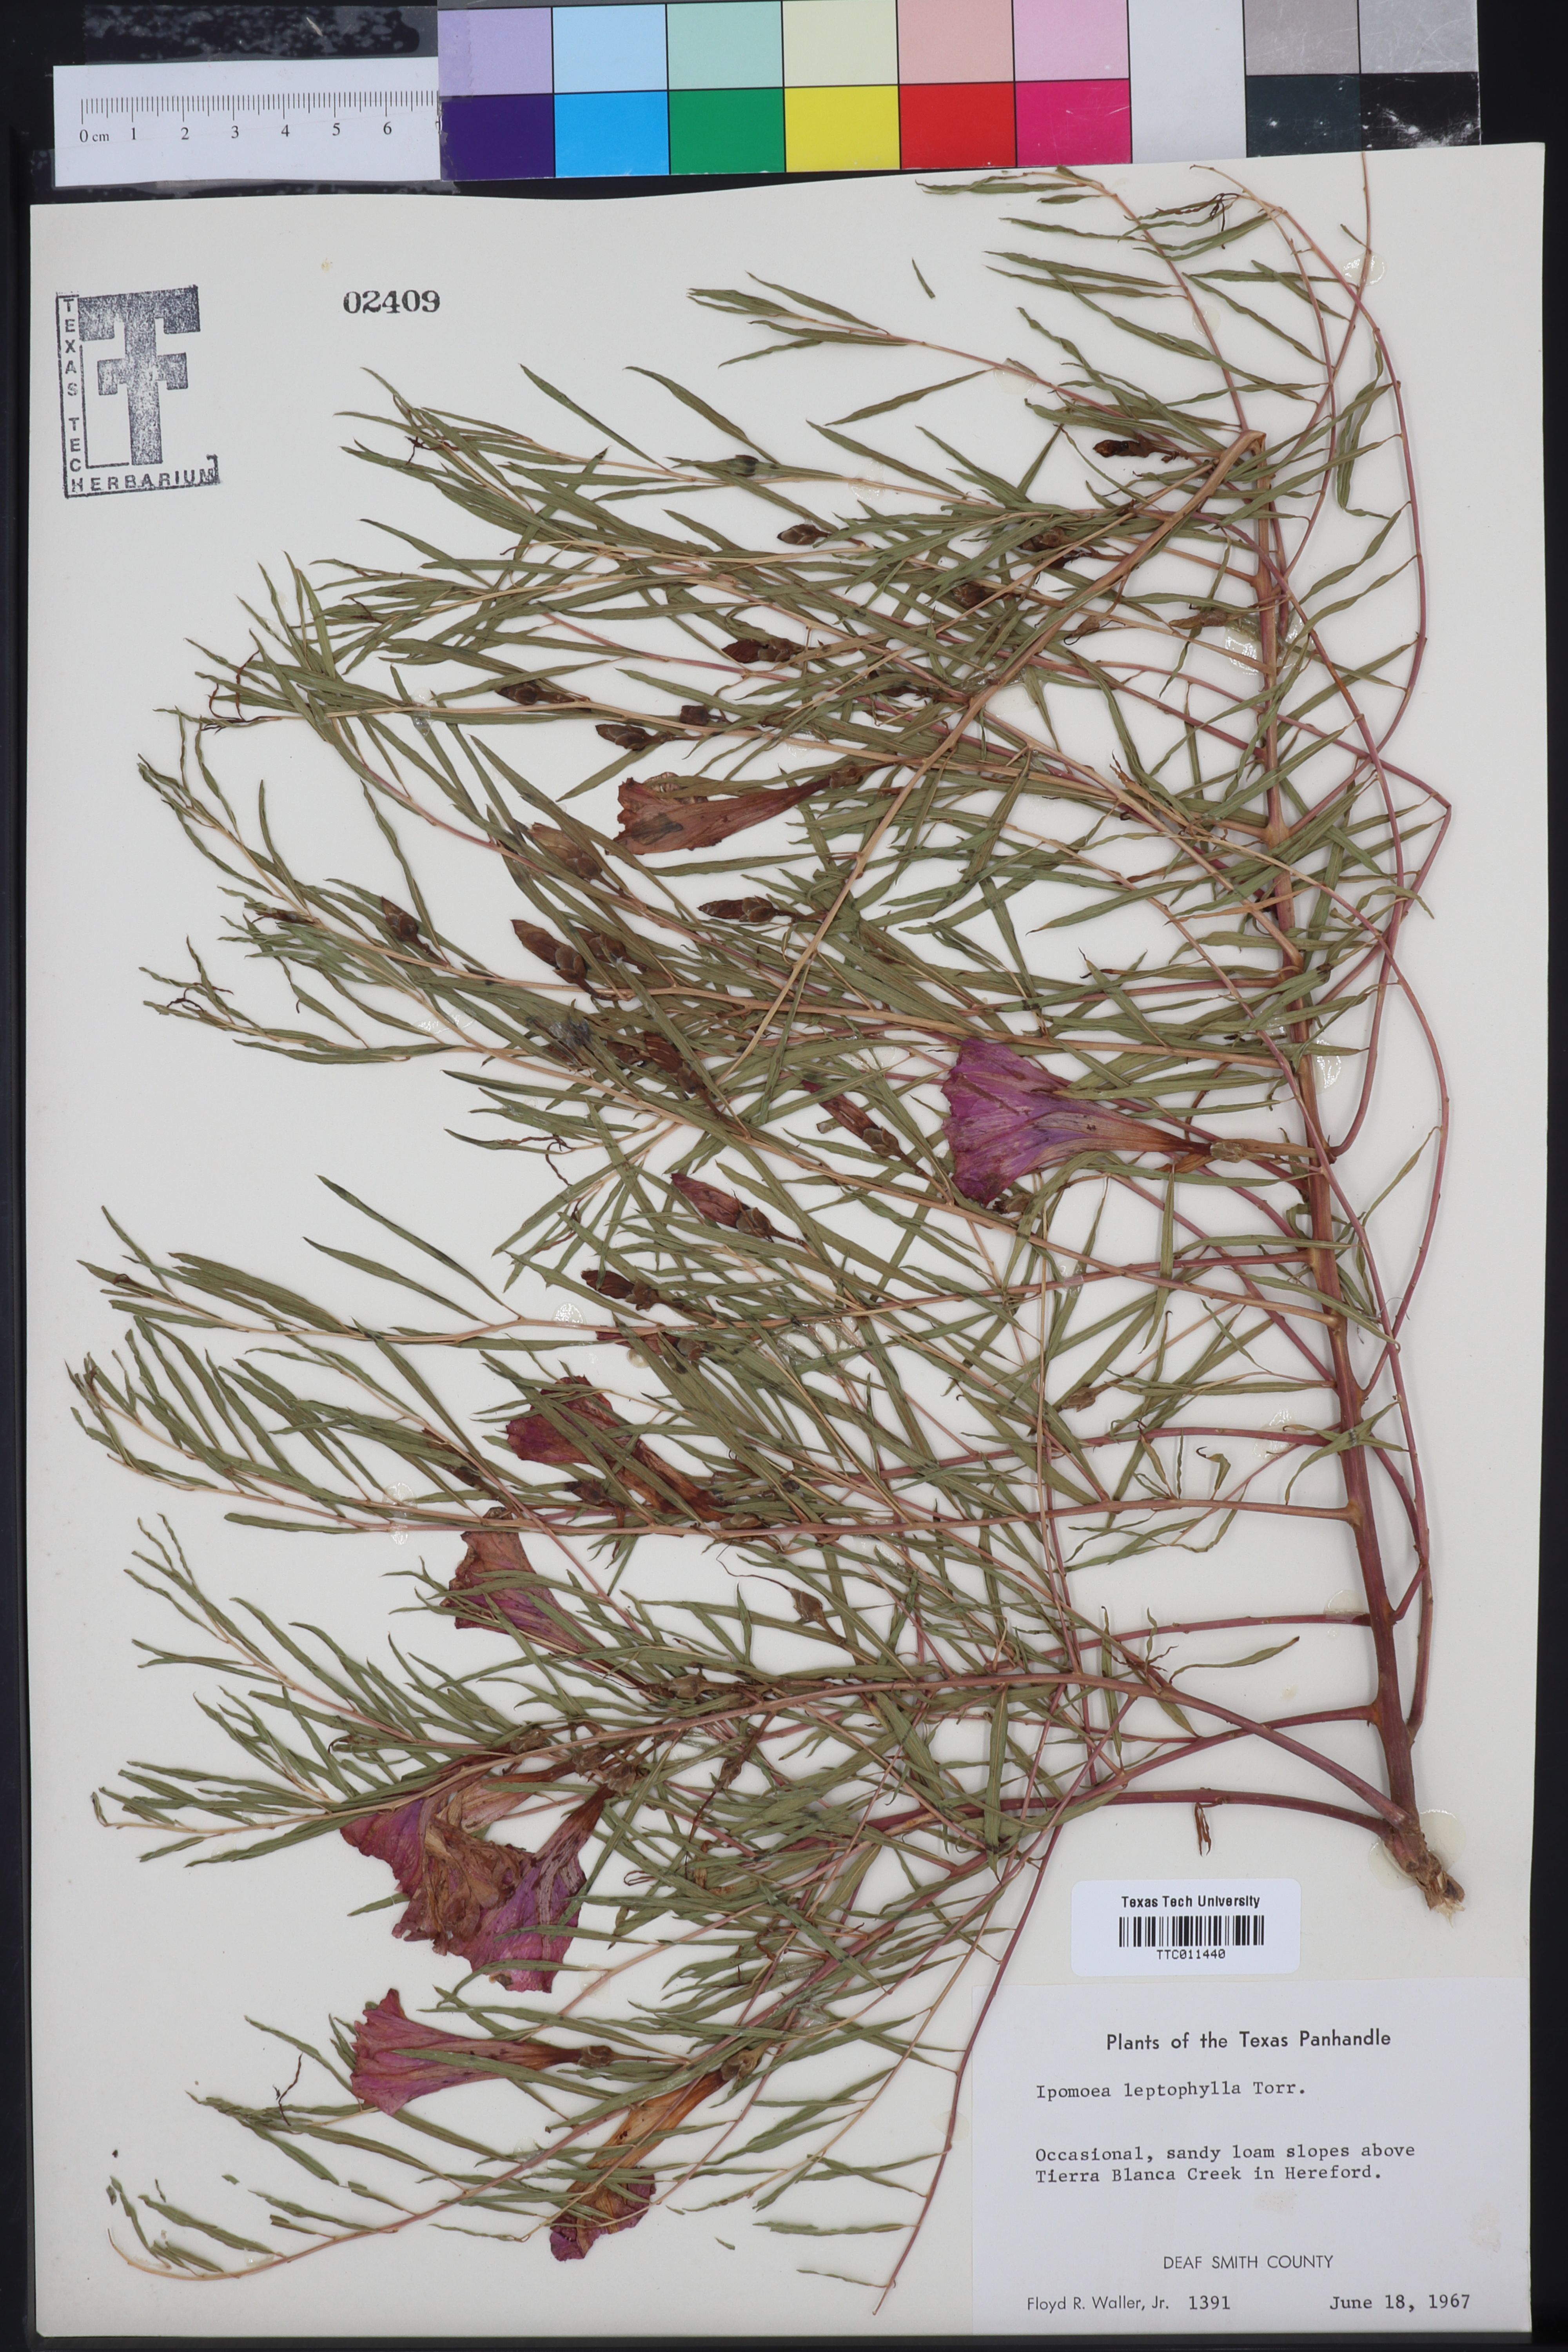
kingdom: Plantae
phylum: Tracheophyta
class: Magnoliopsida
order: Solanales
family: Convolvulaceae
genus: Ipomoea
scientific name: Ipomoea leptophylla
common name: Bush moonflower
